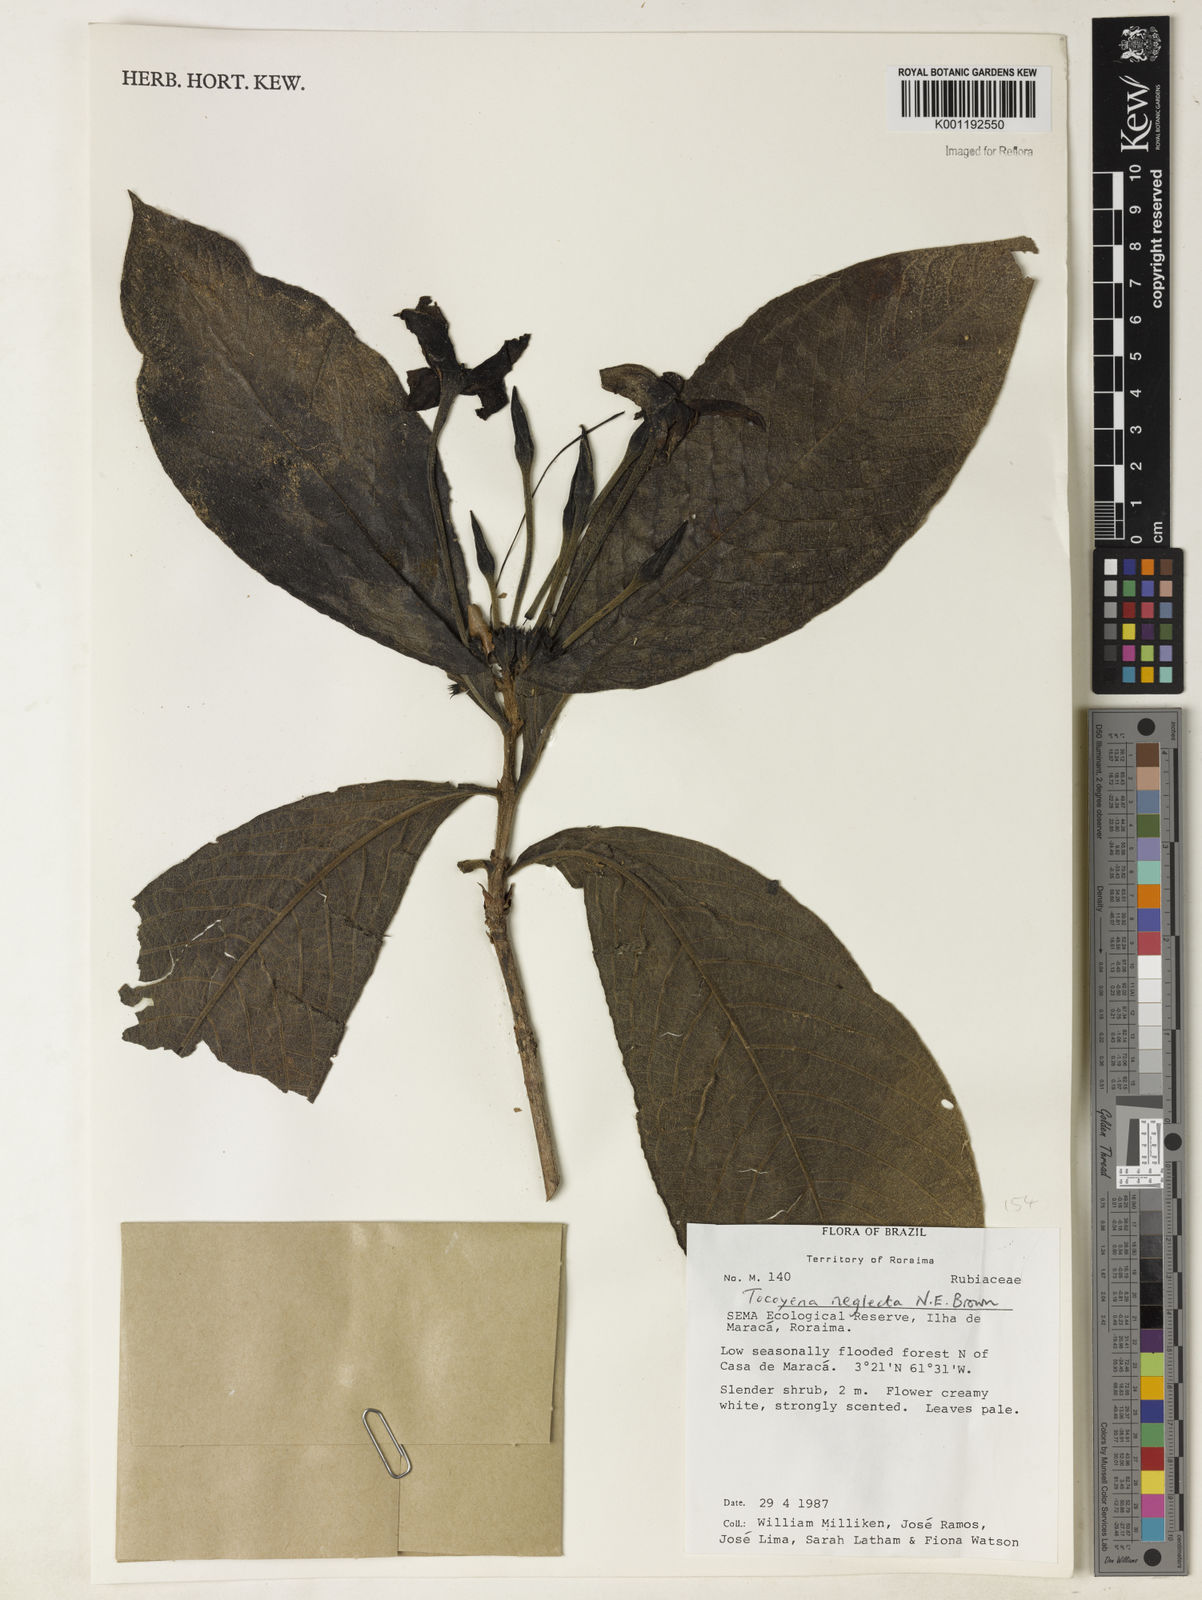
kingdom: Plantae
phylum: Tracheophyta
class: Magnoliopsida
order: Gentianales
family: Rubiaceae
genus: Tocoyena
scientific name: Tocoyena neglecta
